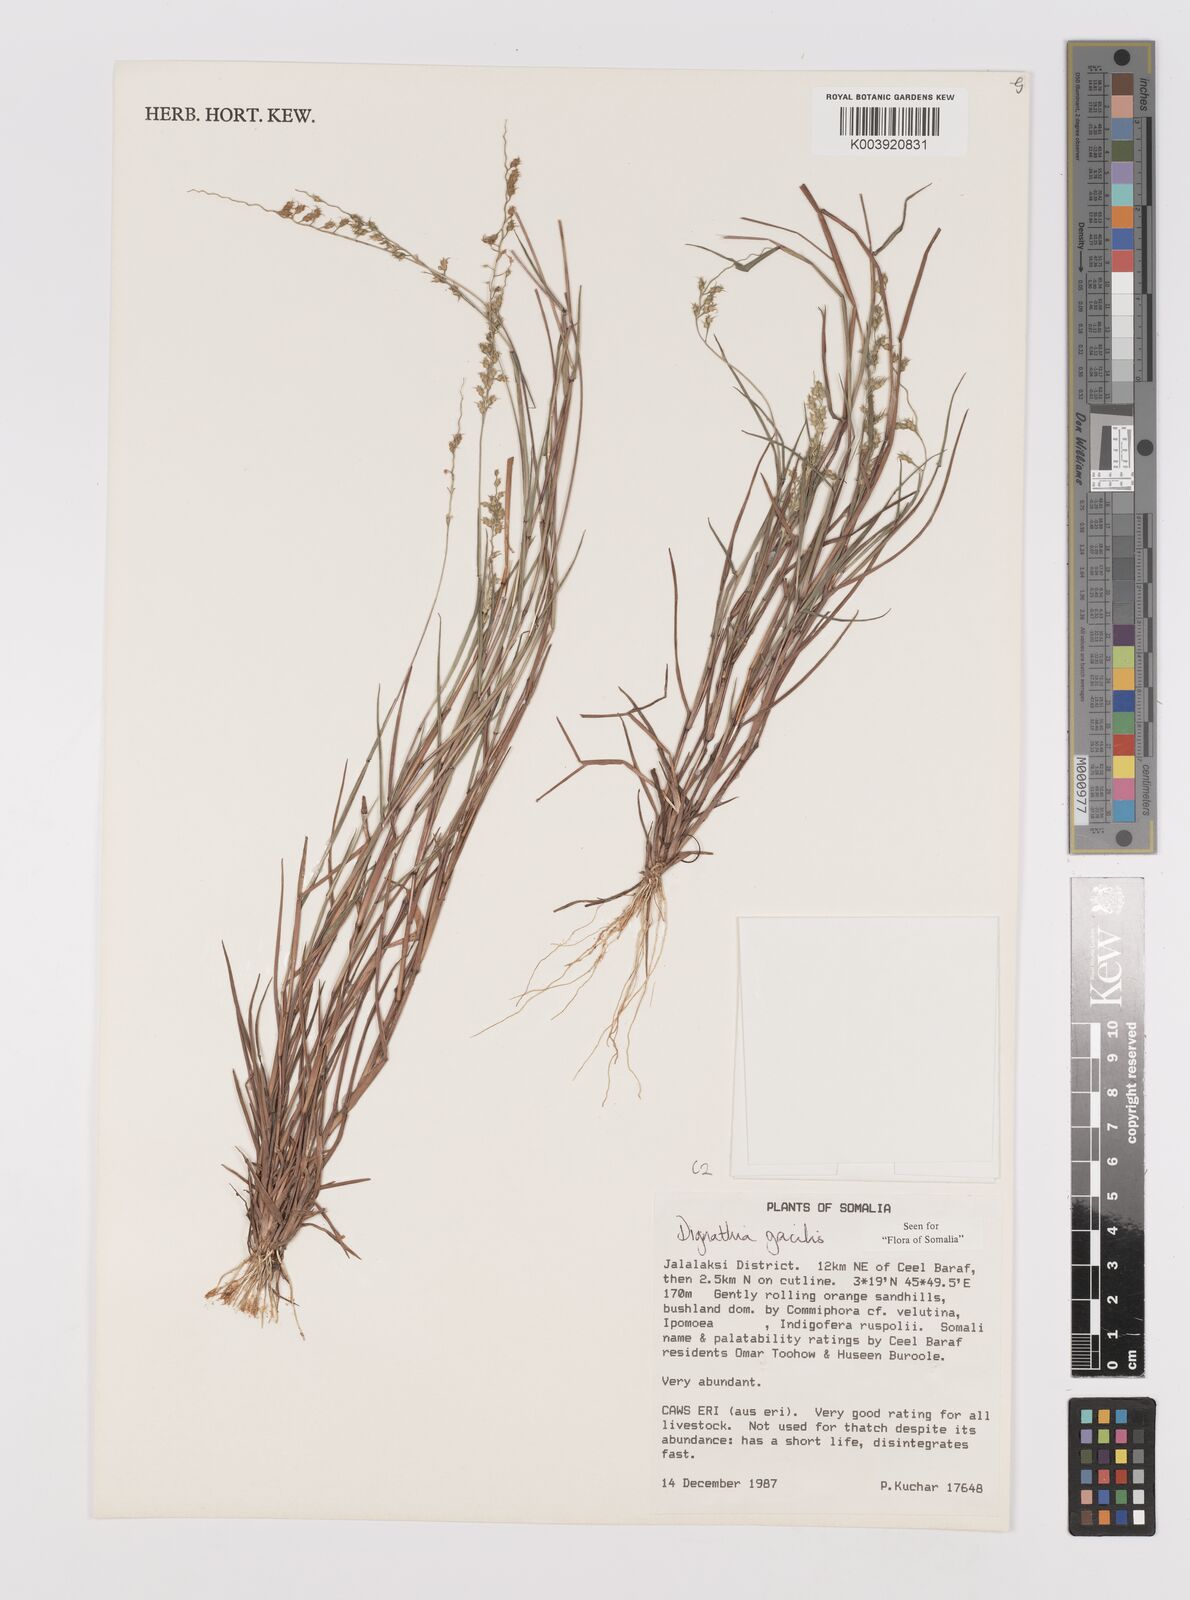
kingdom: Plantae
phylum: Tracheophyta
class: Liliopsida
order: Poales
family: Poaceae
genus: Dignathia
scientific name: Dignathia gracilis
